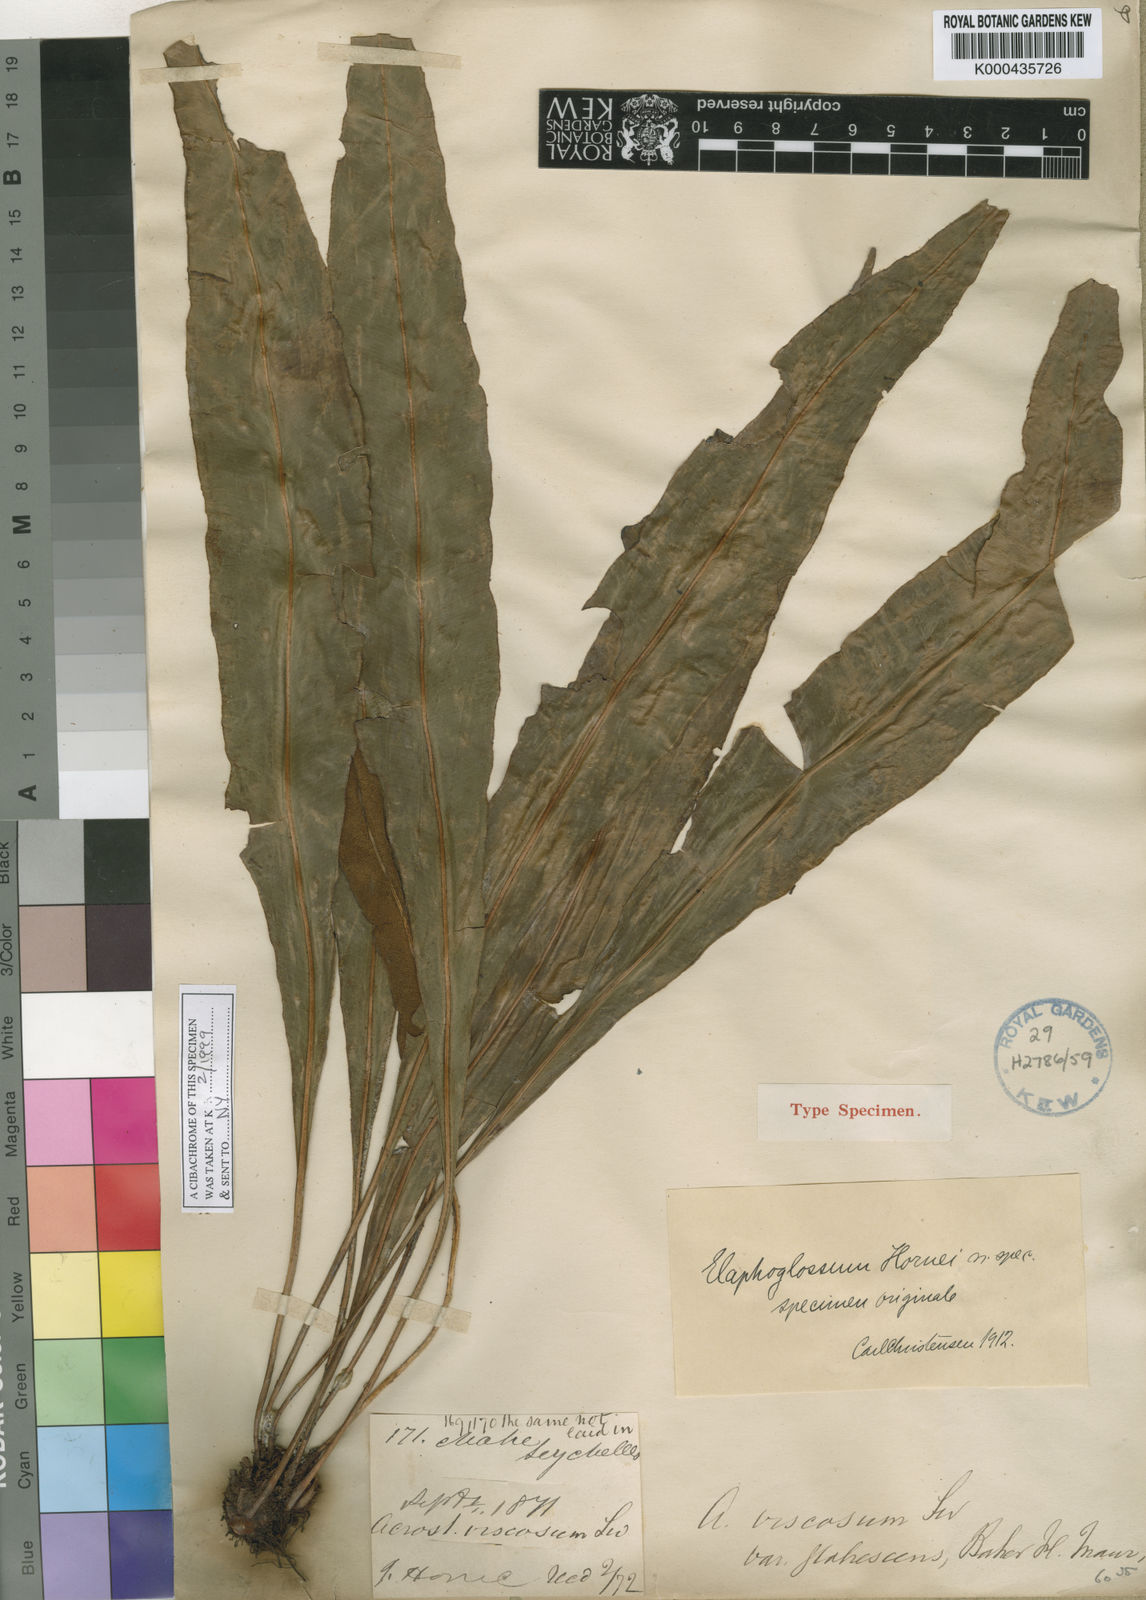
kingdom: Plantae
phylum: Tracheophyta
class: Polypodiopsida
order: Polypodiales
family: Dryopteridaceae
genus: Elaphoglossum
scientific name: Elaphoglossum hornei
